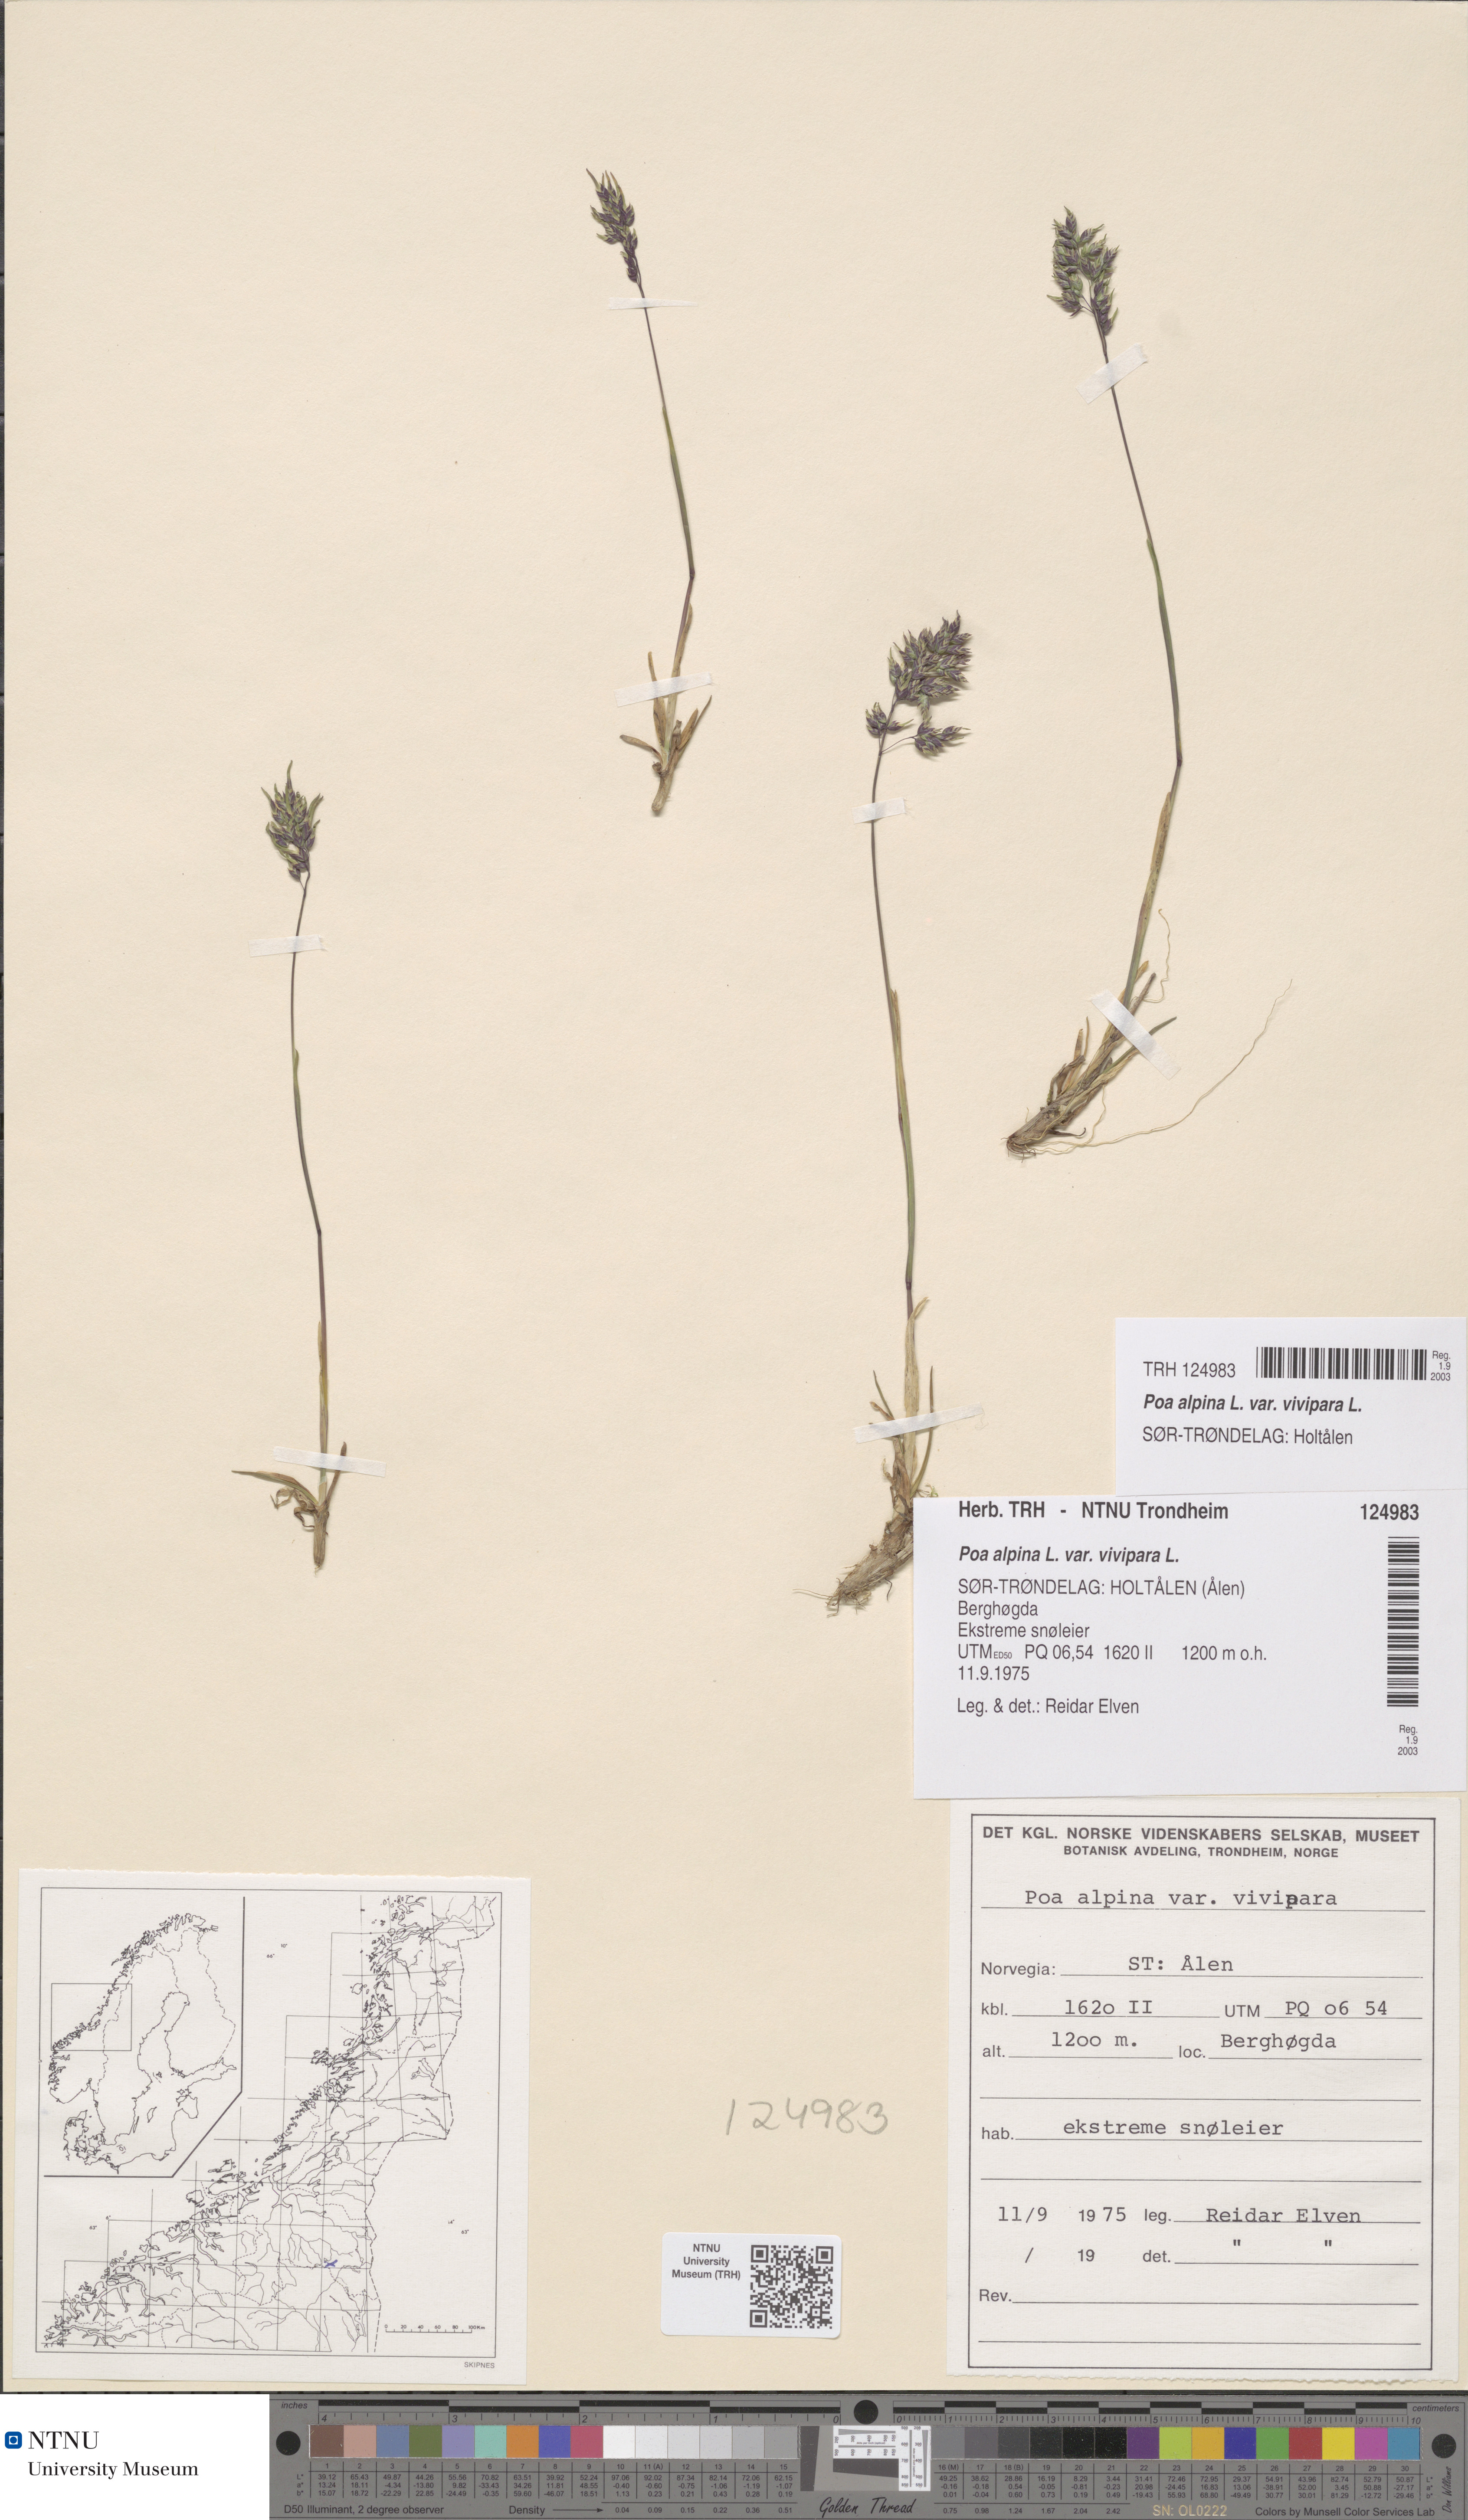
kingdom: Plantae
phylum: Tracheophyta
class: Liliopsida
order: Poales
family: Poaceae
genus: Poa
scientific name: Poa alpina
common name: Alpine bluegrass
